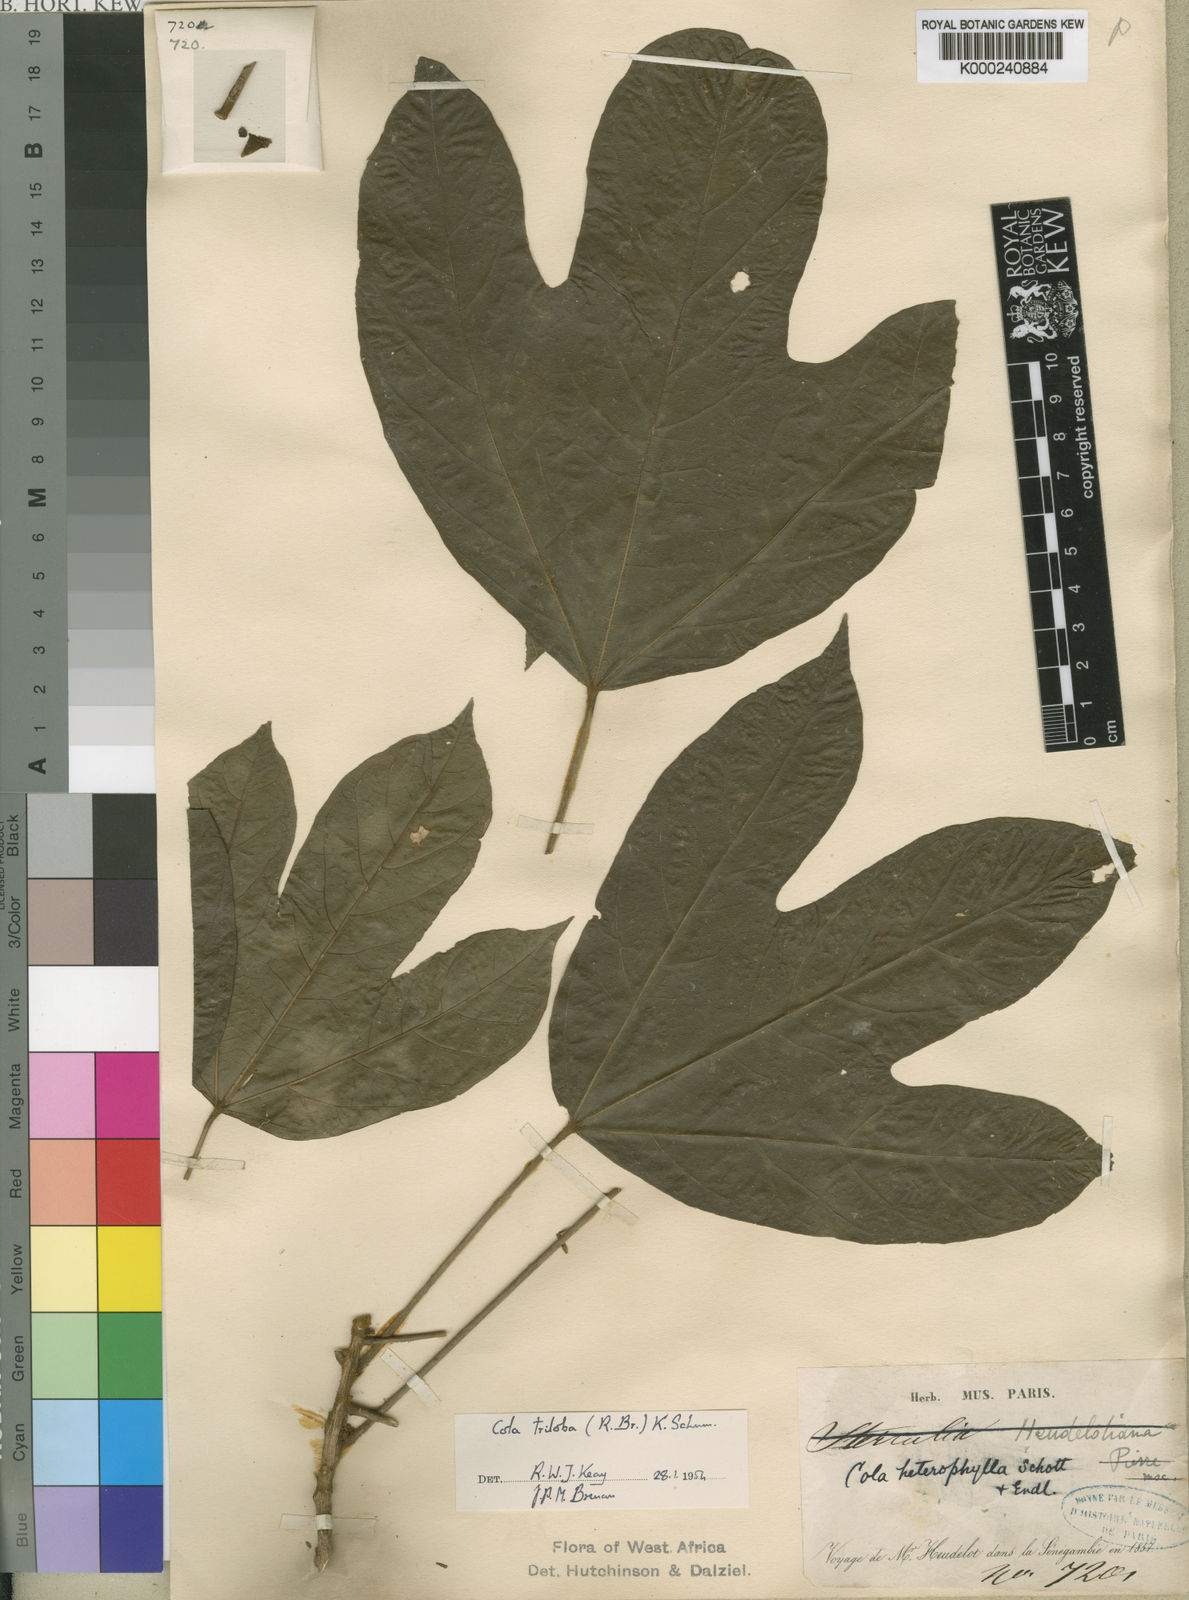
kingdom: Plantae
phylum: Tracheophyta
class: Magnoliopsida
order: Malvales
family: Malvaceae
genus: Cola
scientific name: Cola
